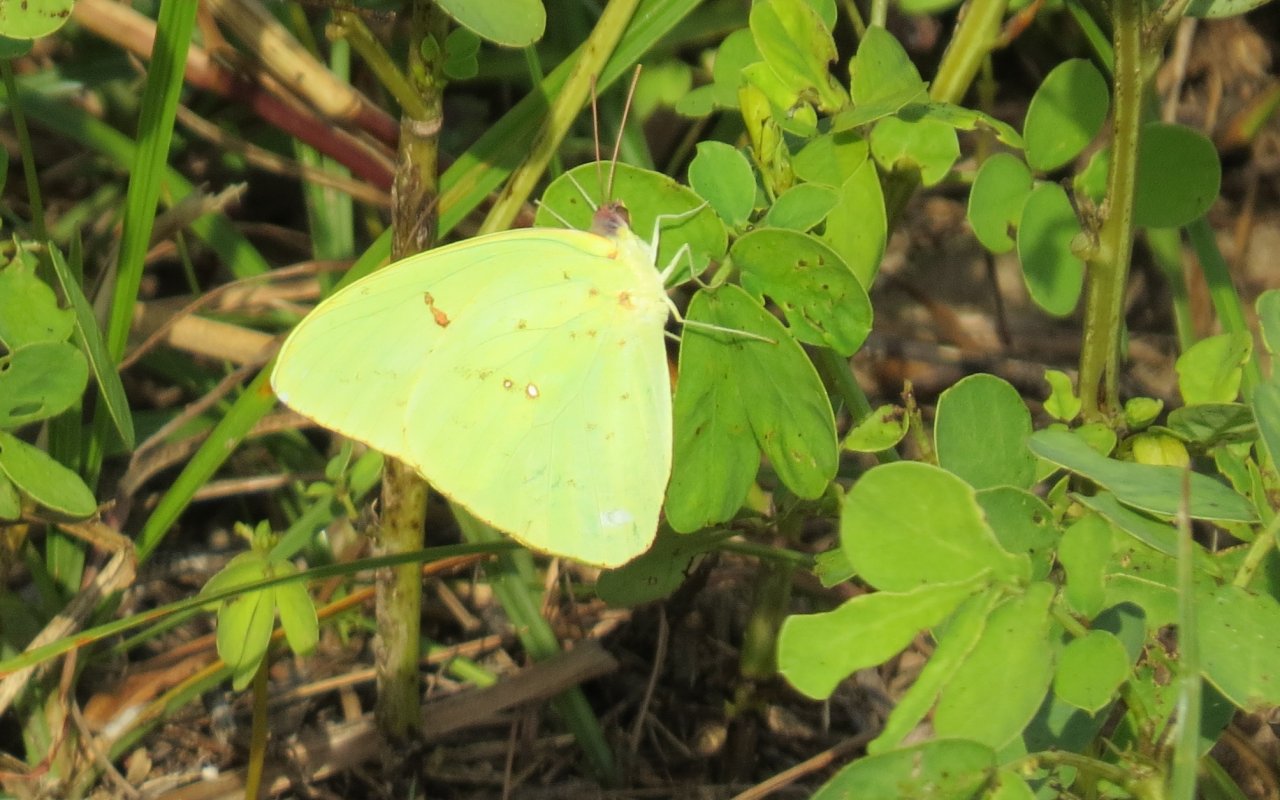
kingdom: Animalia
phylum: Arthropoda
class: Insecta
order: Lepidoptera
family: Pieridae
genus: Phoebis
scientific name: Phoebis sennae
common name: Cloudless Sulphur
